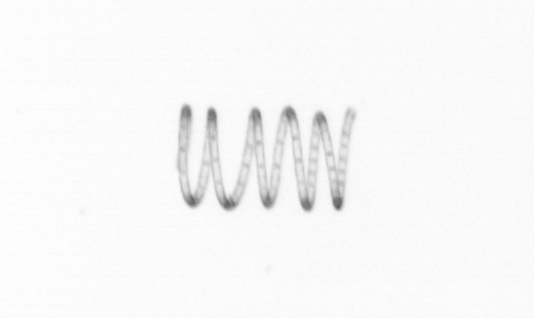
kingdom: Chromista
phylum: Ochrophyta
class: Bacillariophyceae
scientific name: Bacillariophyceae
